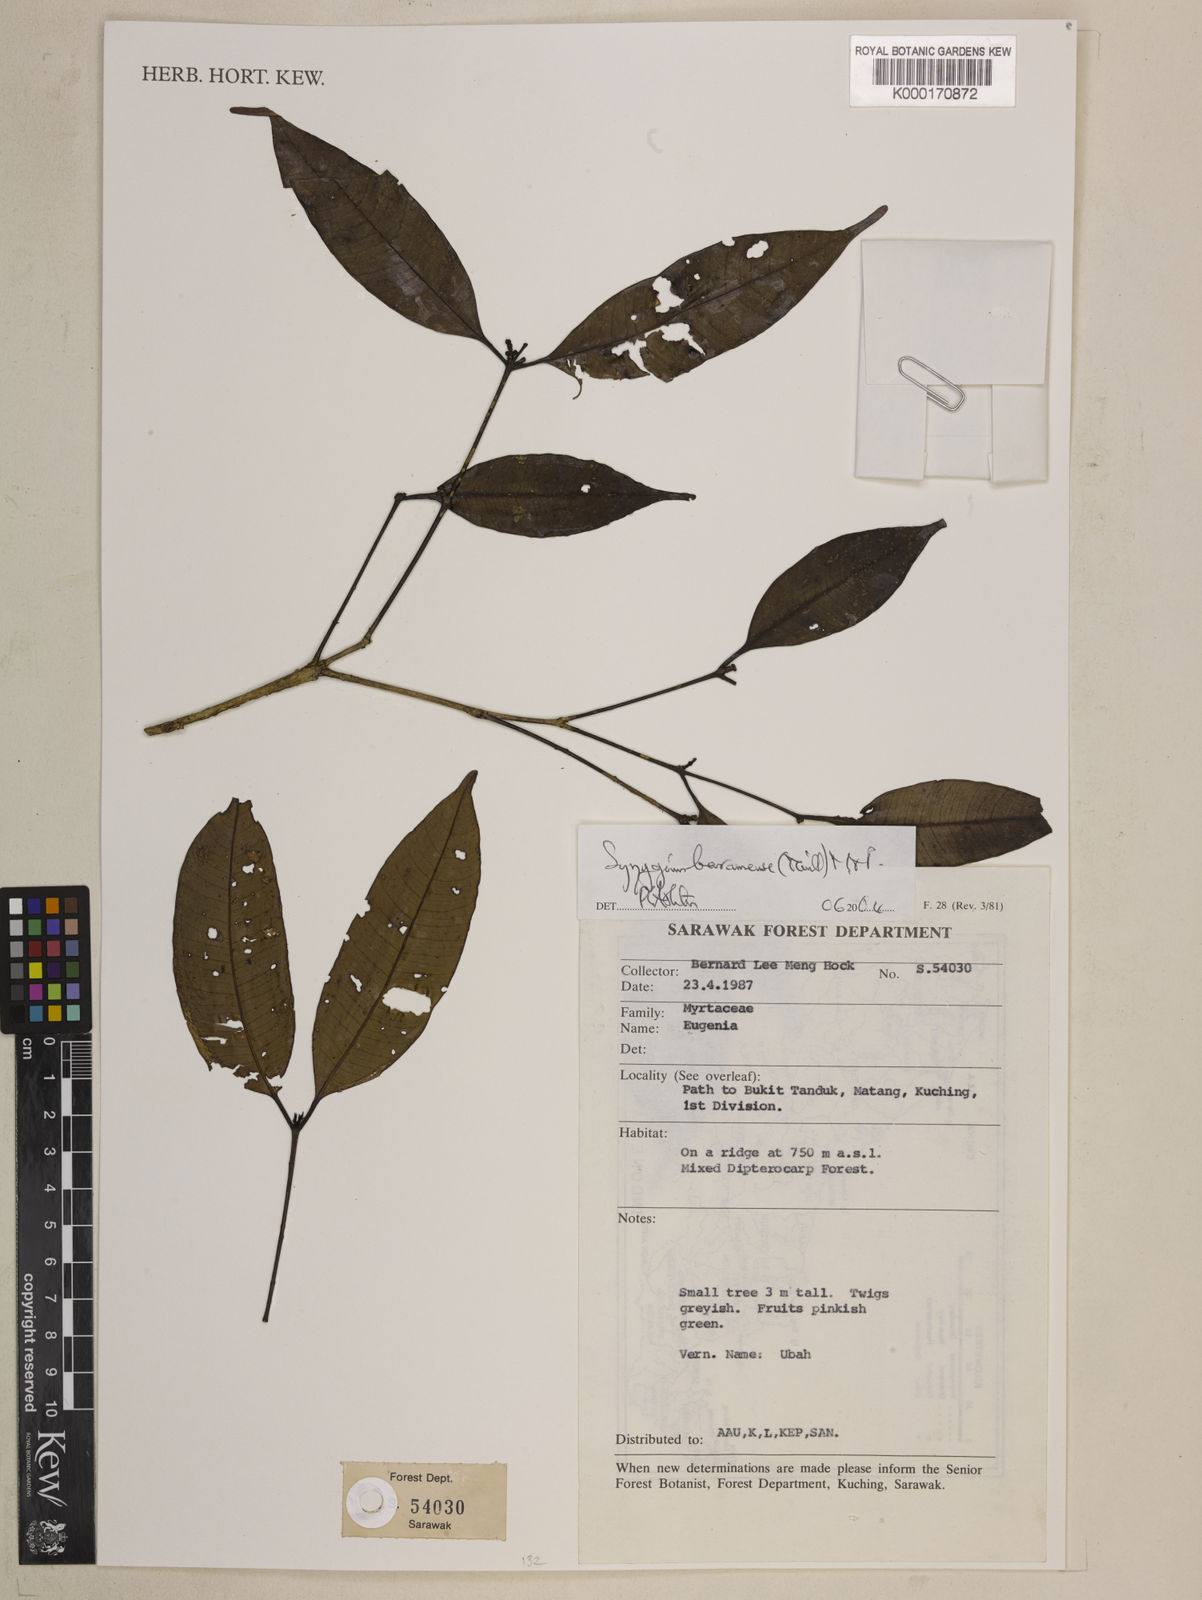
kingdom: Plantae
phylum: Tracheophyta
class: Magnoliopsida
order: Myrtales
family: Myrtaceae
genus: Syzygium
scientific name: Syzygium baramense
